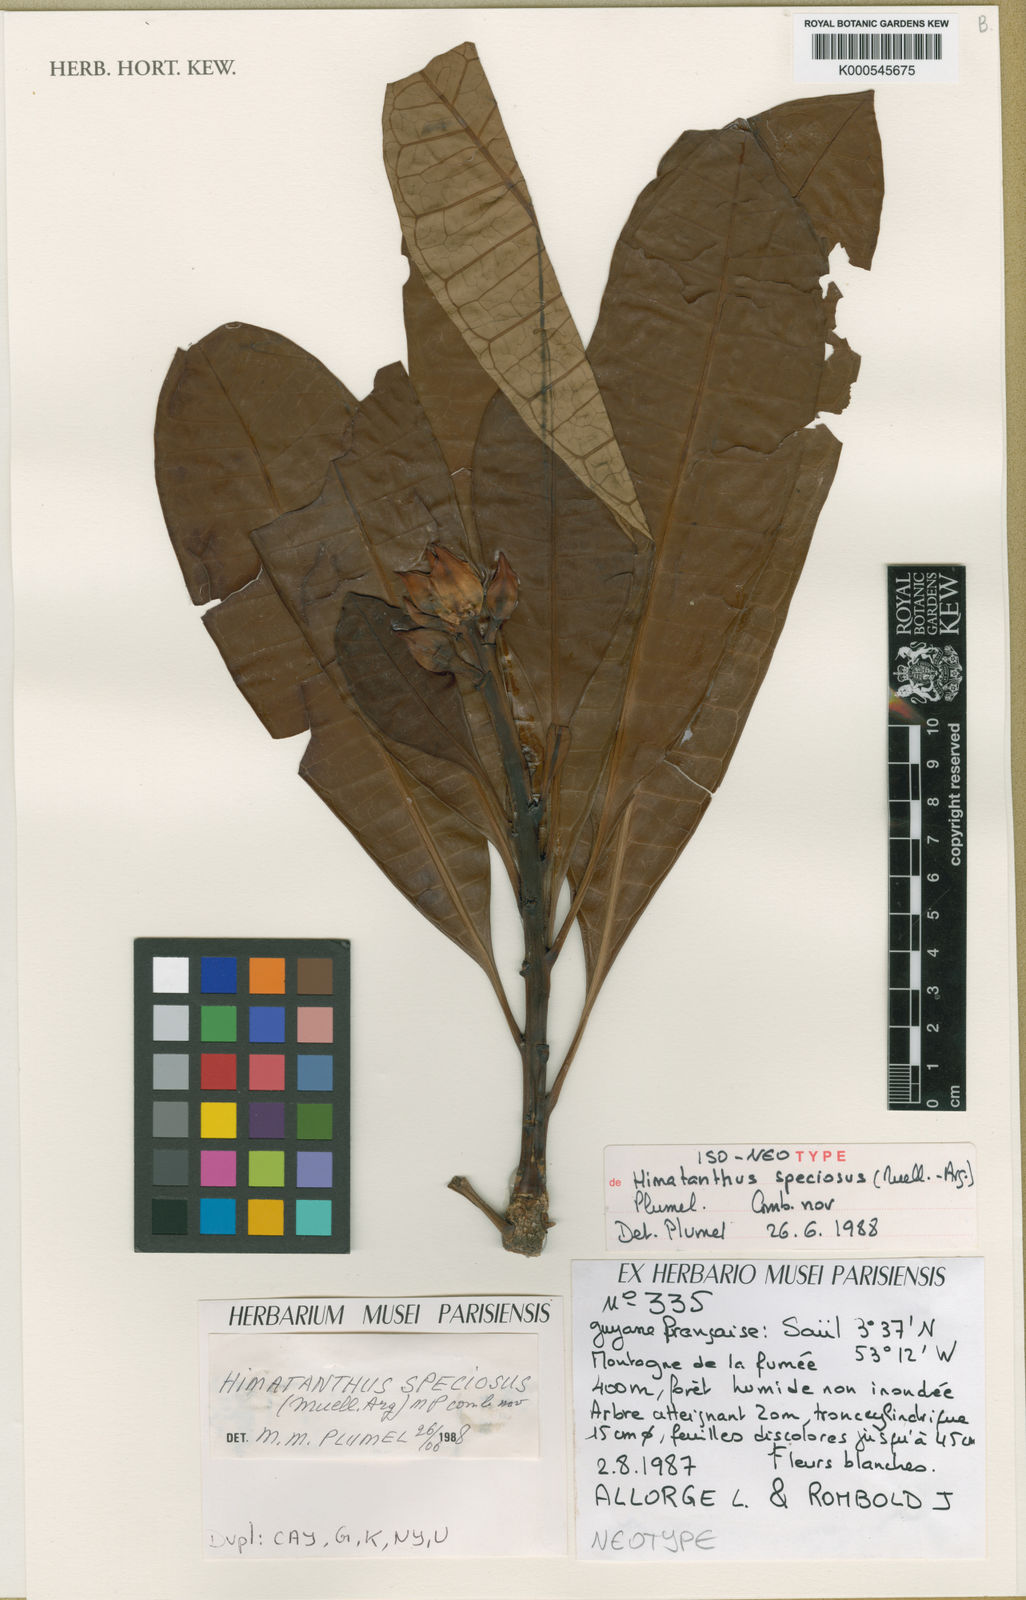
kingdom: Plantae
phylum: Tracheophyta
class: Magnoliopsida
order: Gentianales
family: Apocynaceae
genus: Himatanthus
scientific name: Himatanthus
